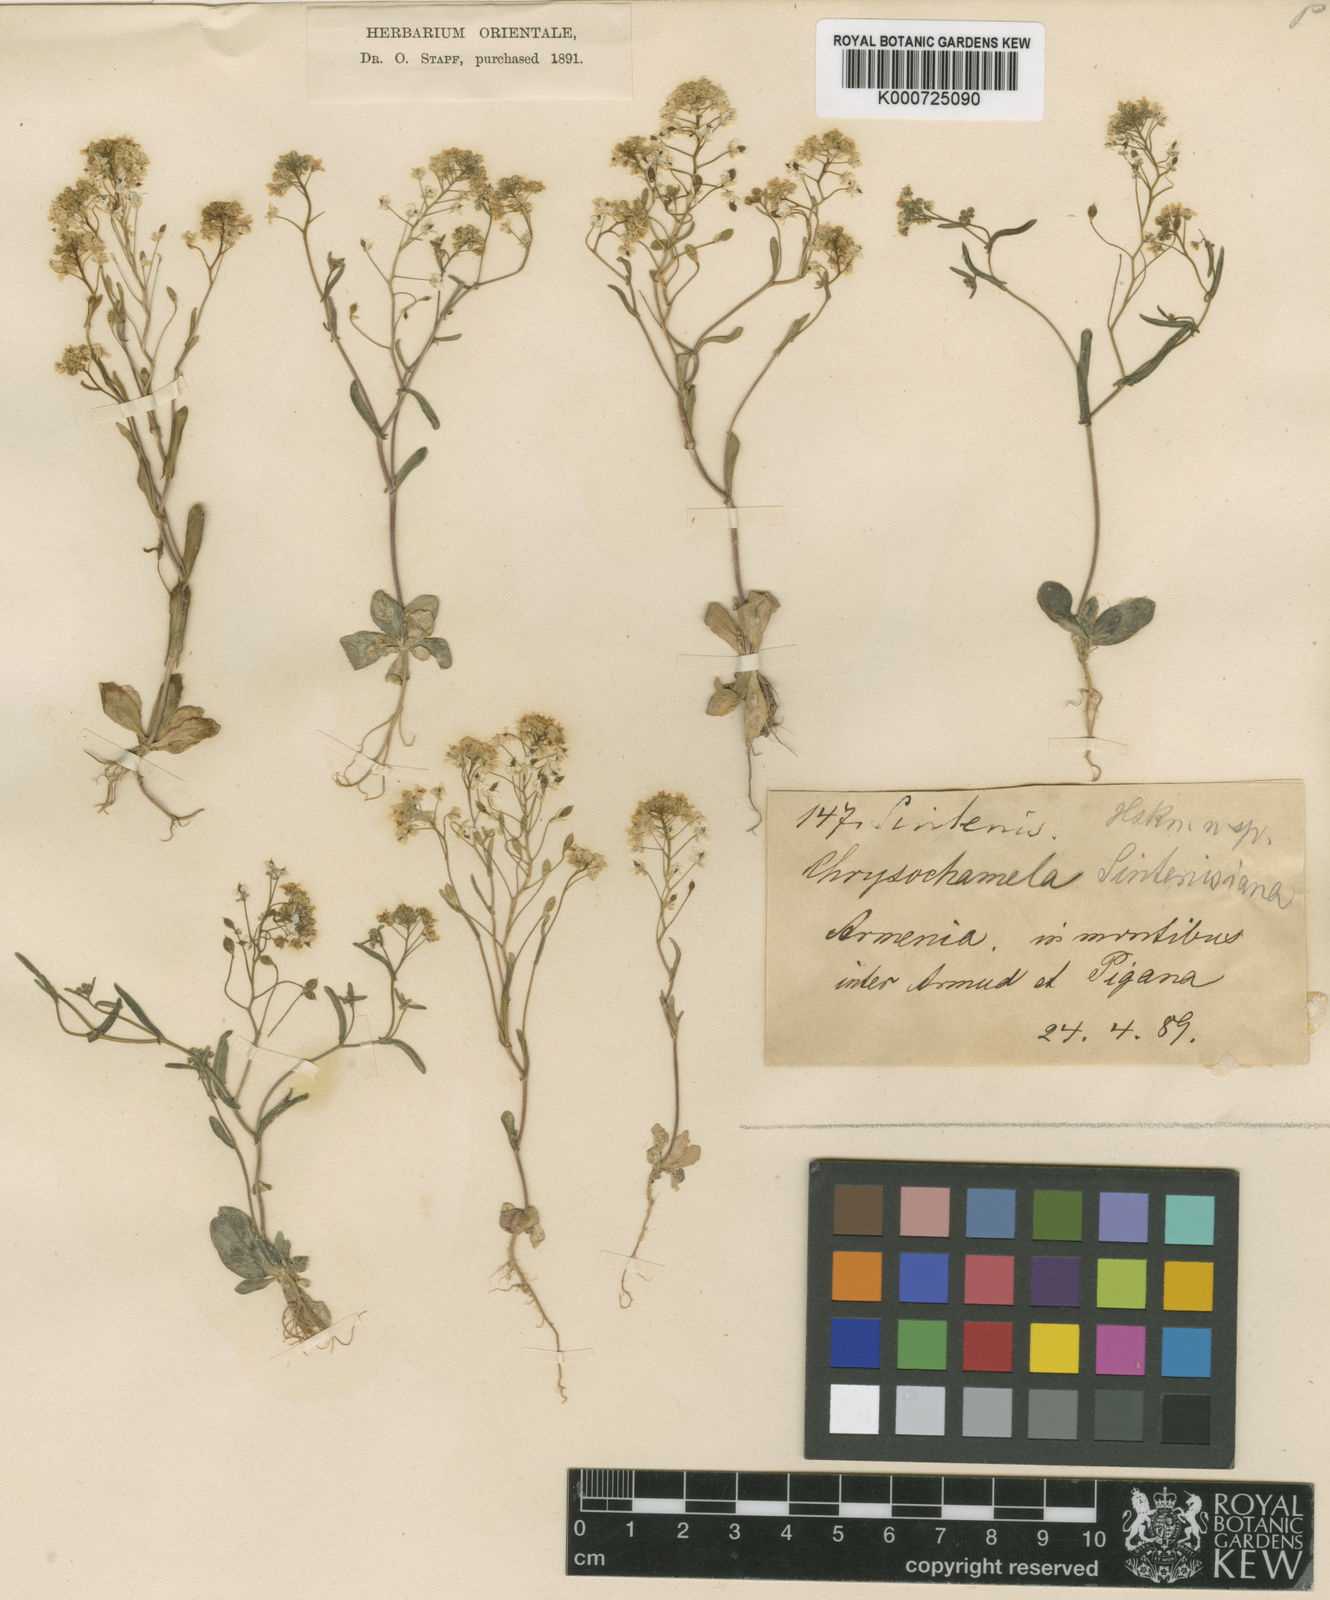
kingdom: Plantae
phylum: Tracheophyta
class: Magnoliopsida
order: Brassicales
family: Brassicaceae
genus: Chrysochamela
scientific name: Chrysochamela velutina
